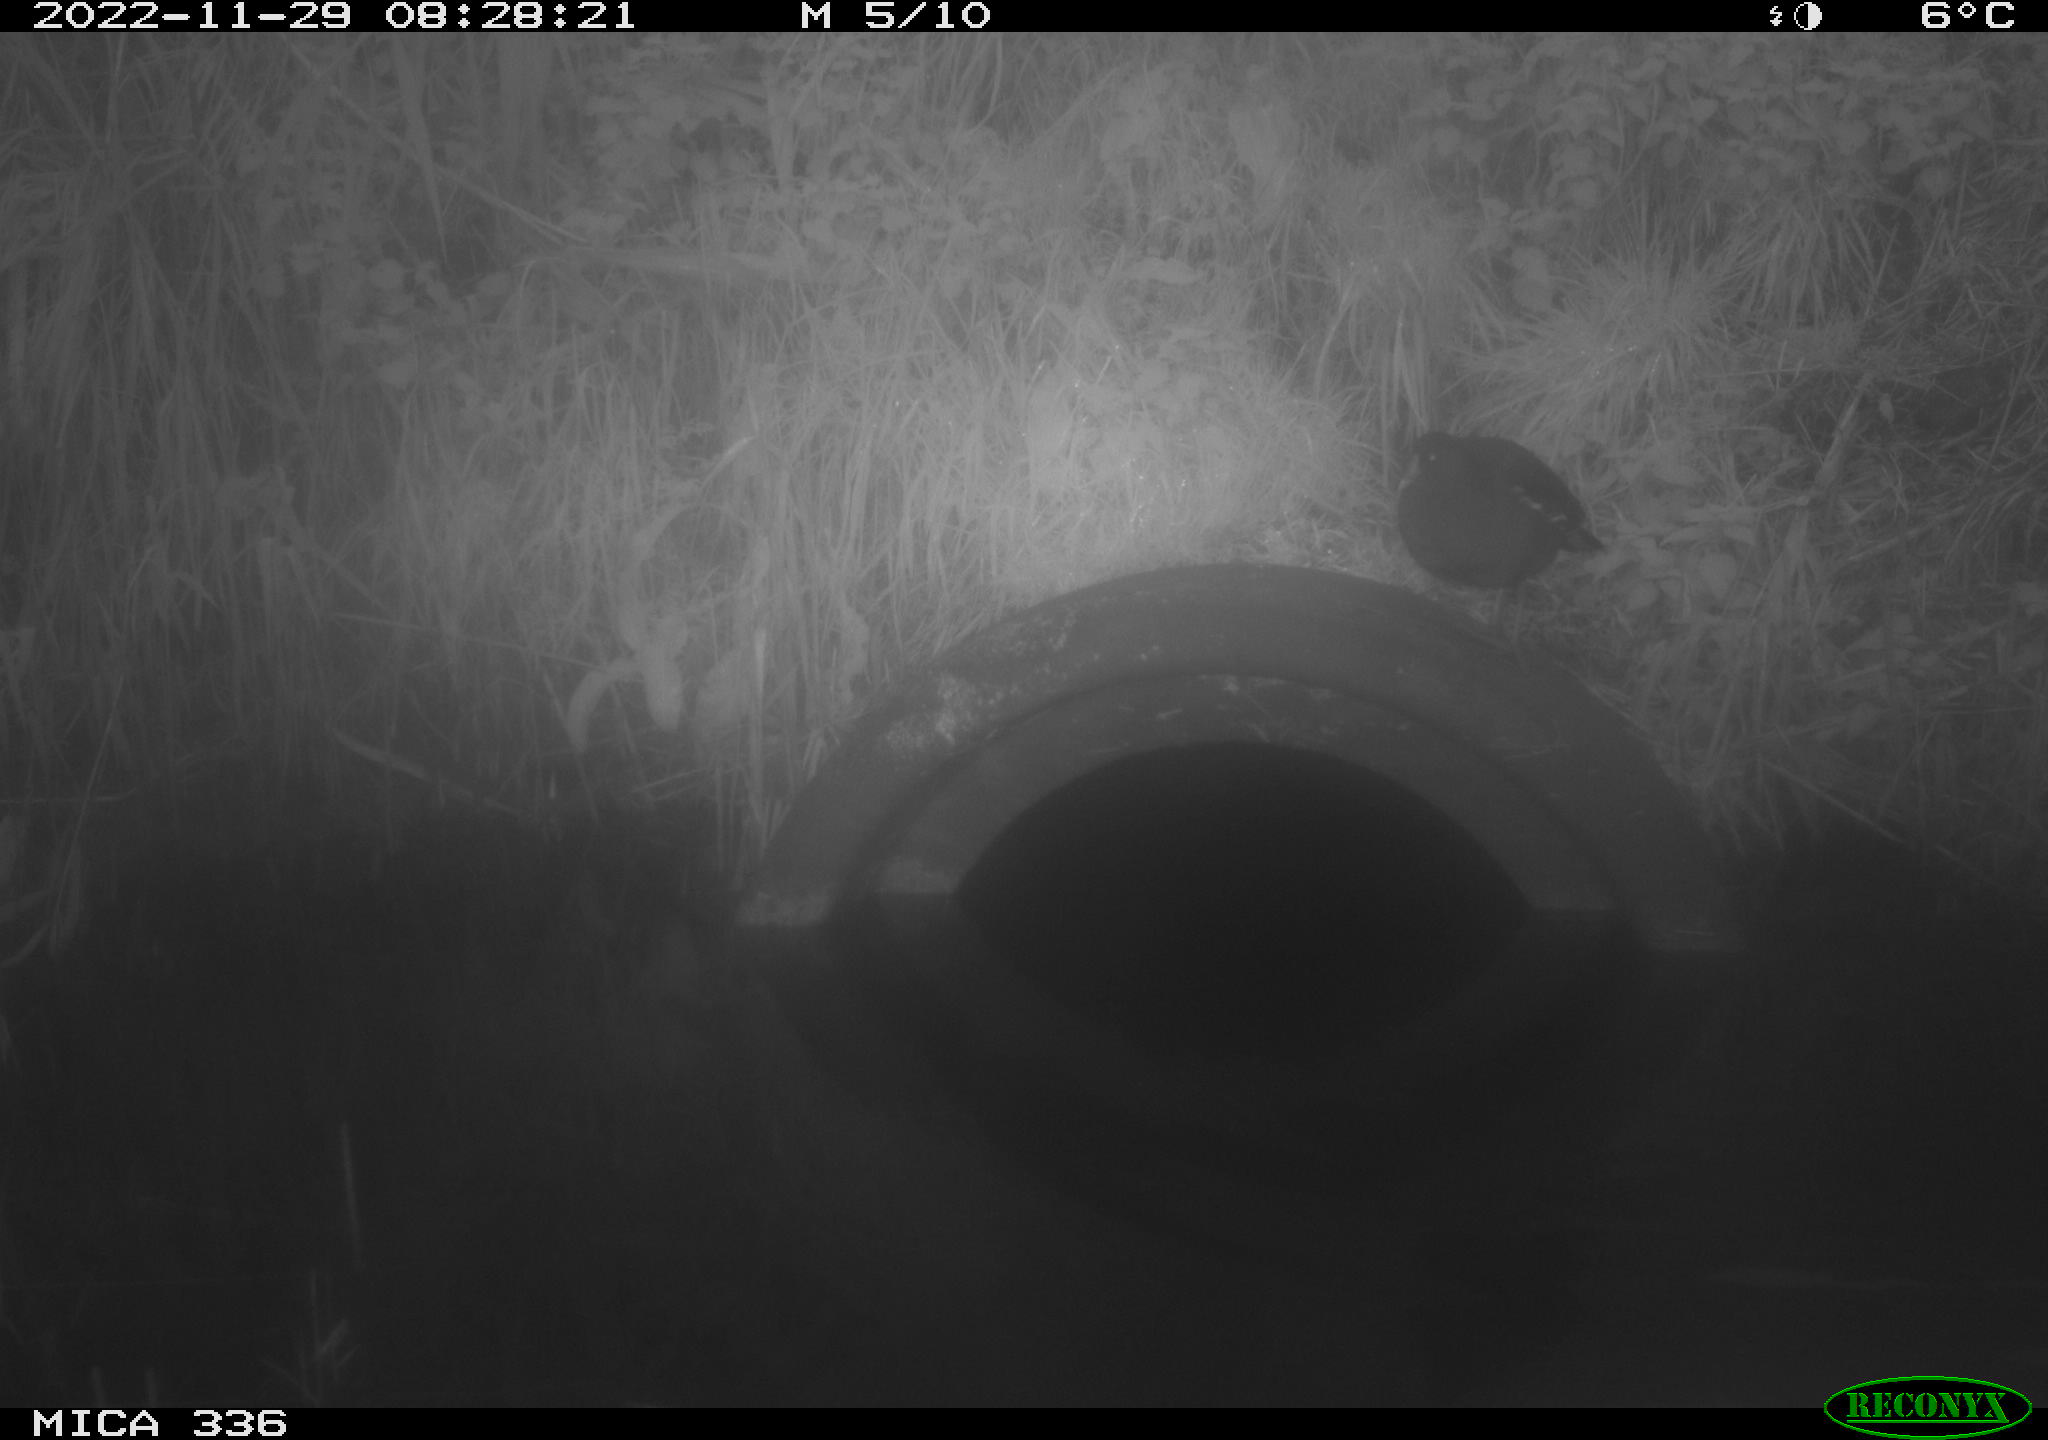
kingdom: Animalia
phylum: Chordata
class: Aves
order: Gruiformes
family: Rallidae
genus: Gallinula
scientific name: Gallinula chloropus
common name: Common moorhen
